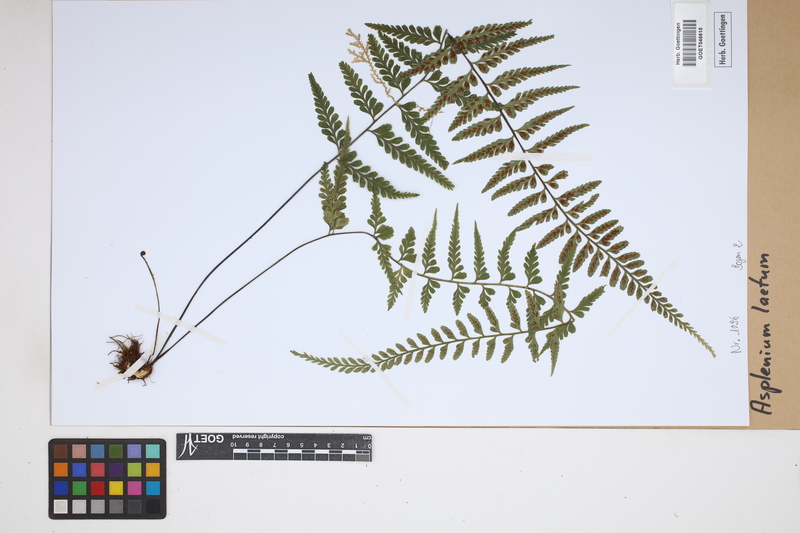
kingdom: Plantae
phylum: Tracheophyta
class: Polypodiopsida
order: Polypodiales
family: Aspleniaceae
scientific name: Aspleniaceae
